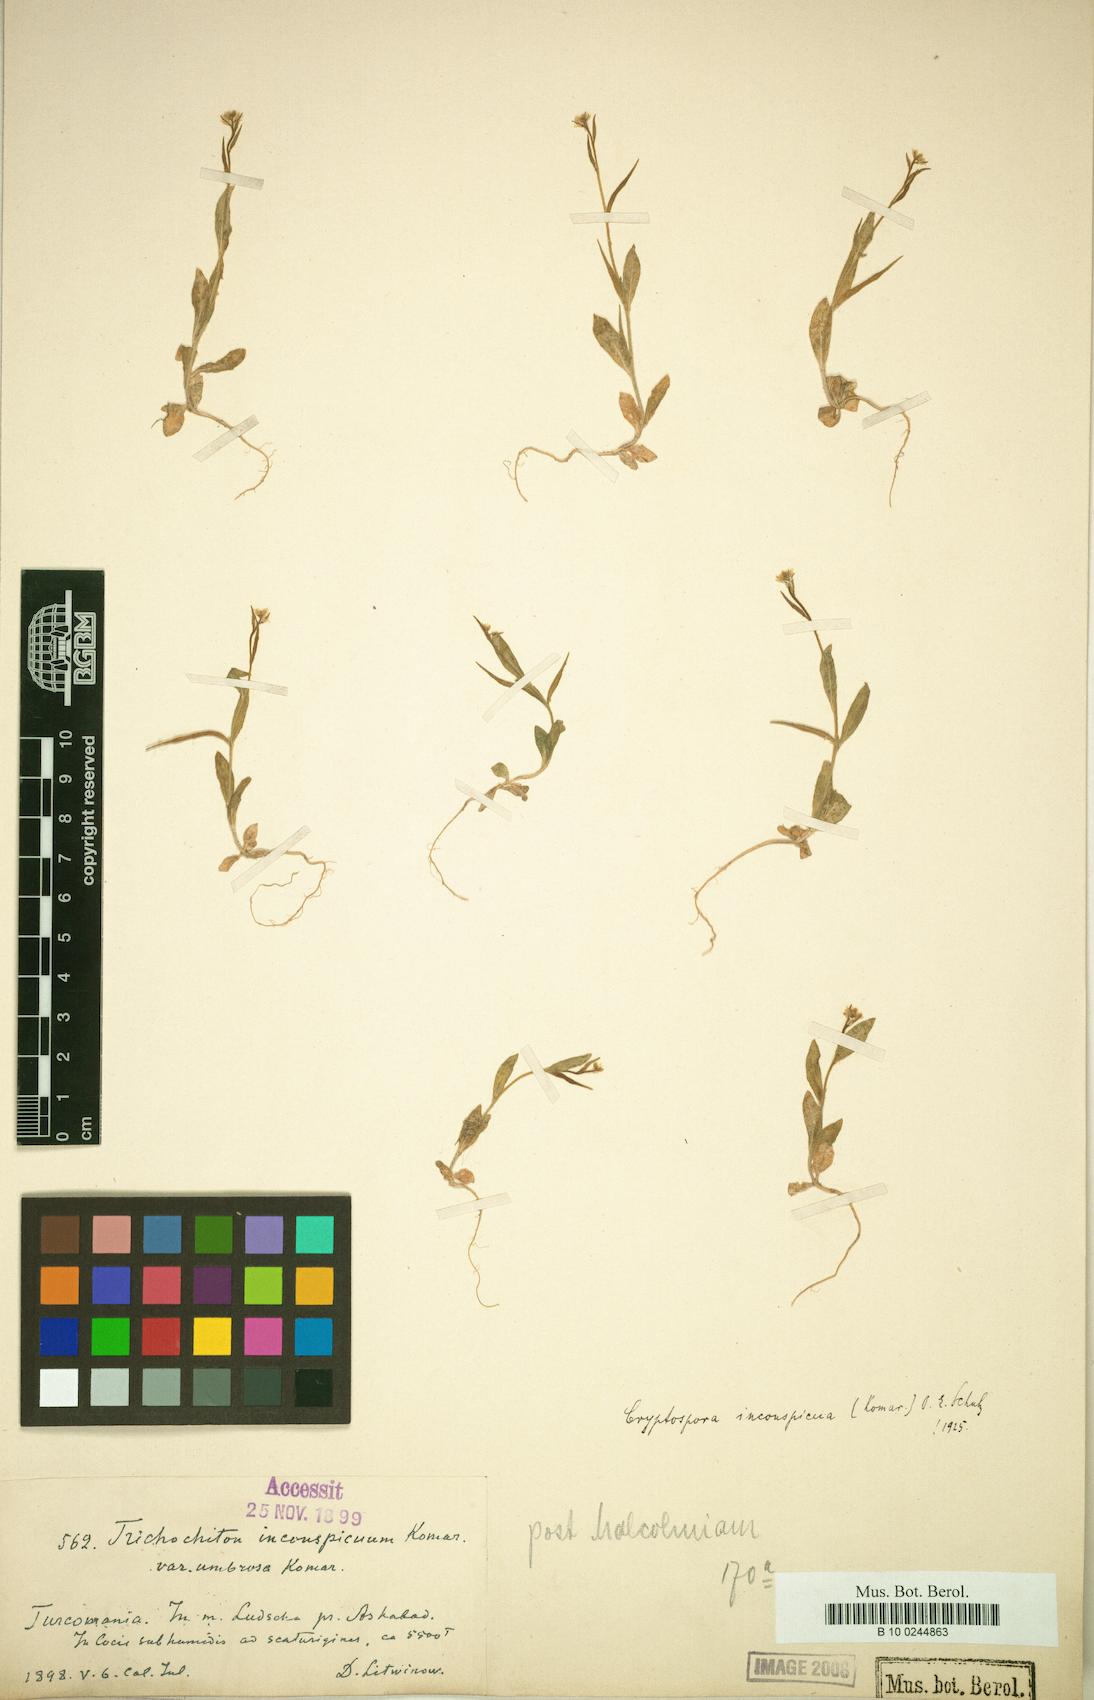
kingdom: Plantae
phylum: Tracheophyta
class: Magnoliopsida
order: Brassicales
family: Brassicaceae
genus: Cryptospora
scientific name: Cryptospora inconspicua
